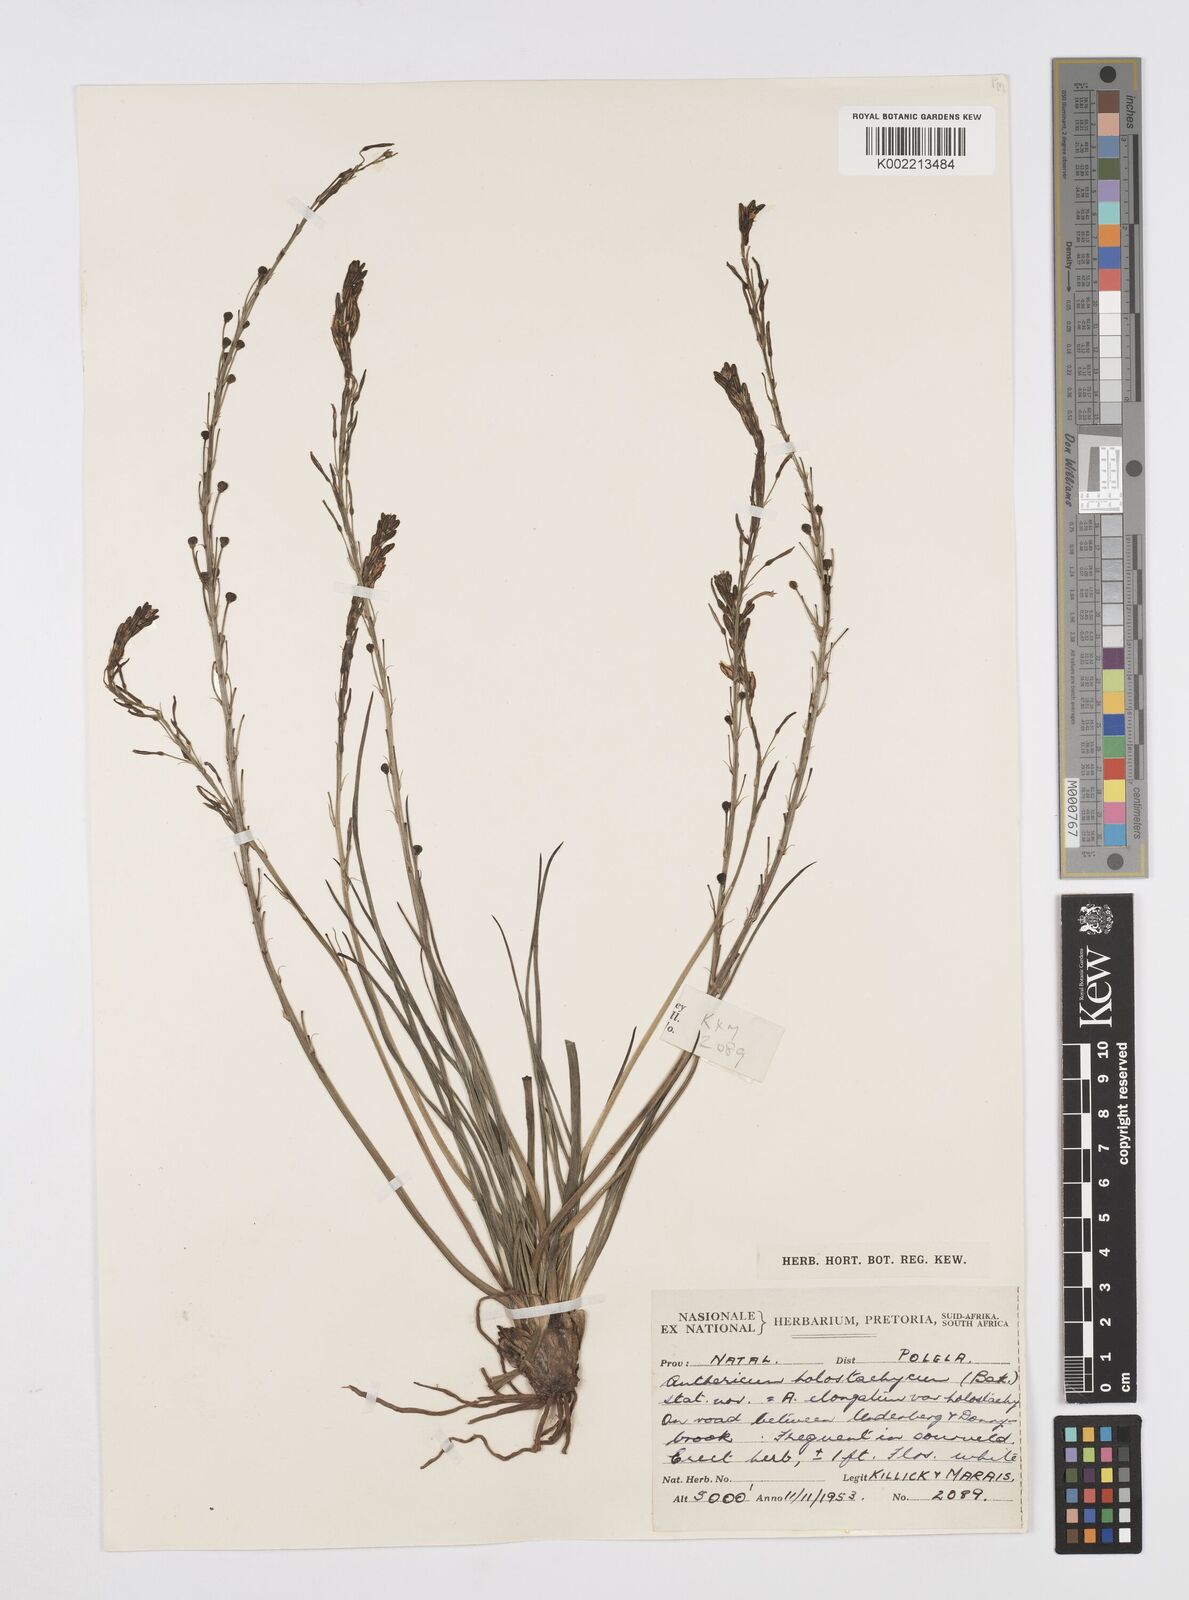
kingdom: Plantae
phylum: Tracheophyta
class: Liliopsida
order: Asparagales
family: Asphodelaceae
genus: Trachyandra
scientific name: Trachyandra saltii
